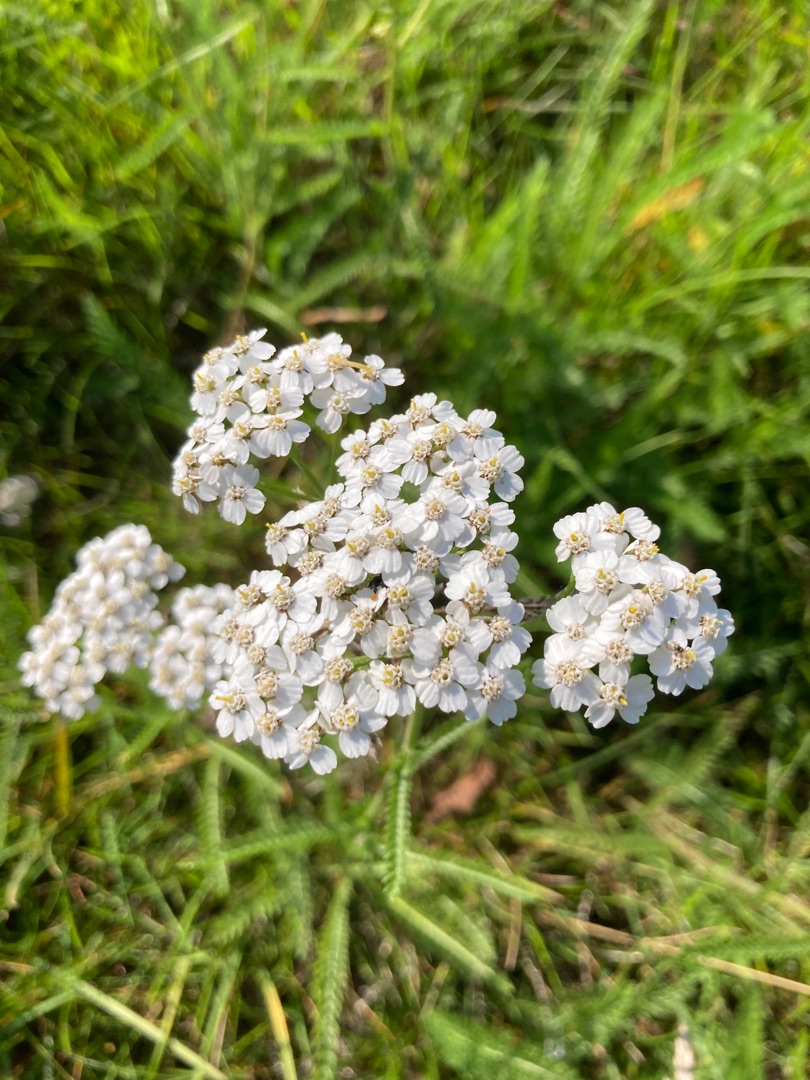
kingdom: Plantae
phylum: Tracheophyta
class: Magnoliopsida
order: Asterales
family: Asteraceae
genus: Achillea
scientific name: Achillea millefolium
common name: Almindelig røllike
